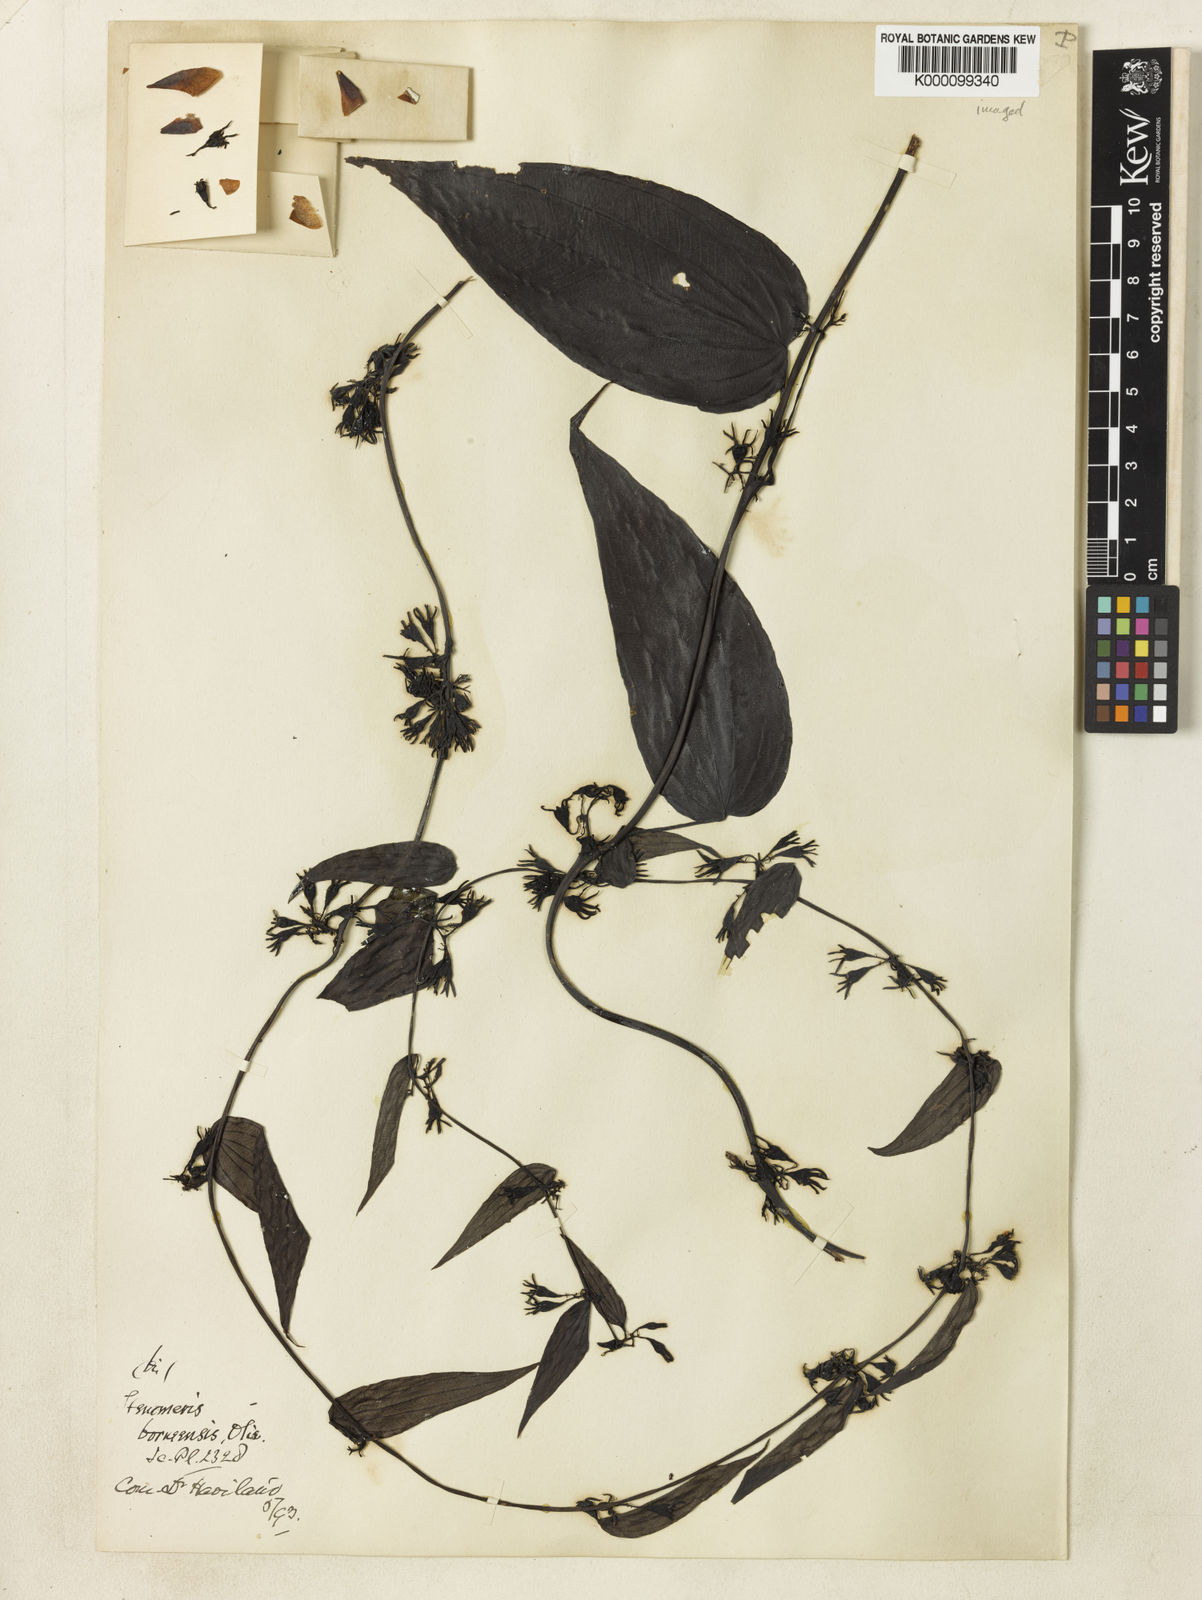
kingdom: Plantae
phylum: Tracheophyta
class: Liliopsida
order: Dioscoreales
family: Dioscoreaceae
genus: Stenomeris
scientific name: Stenomeris borneensis
